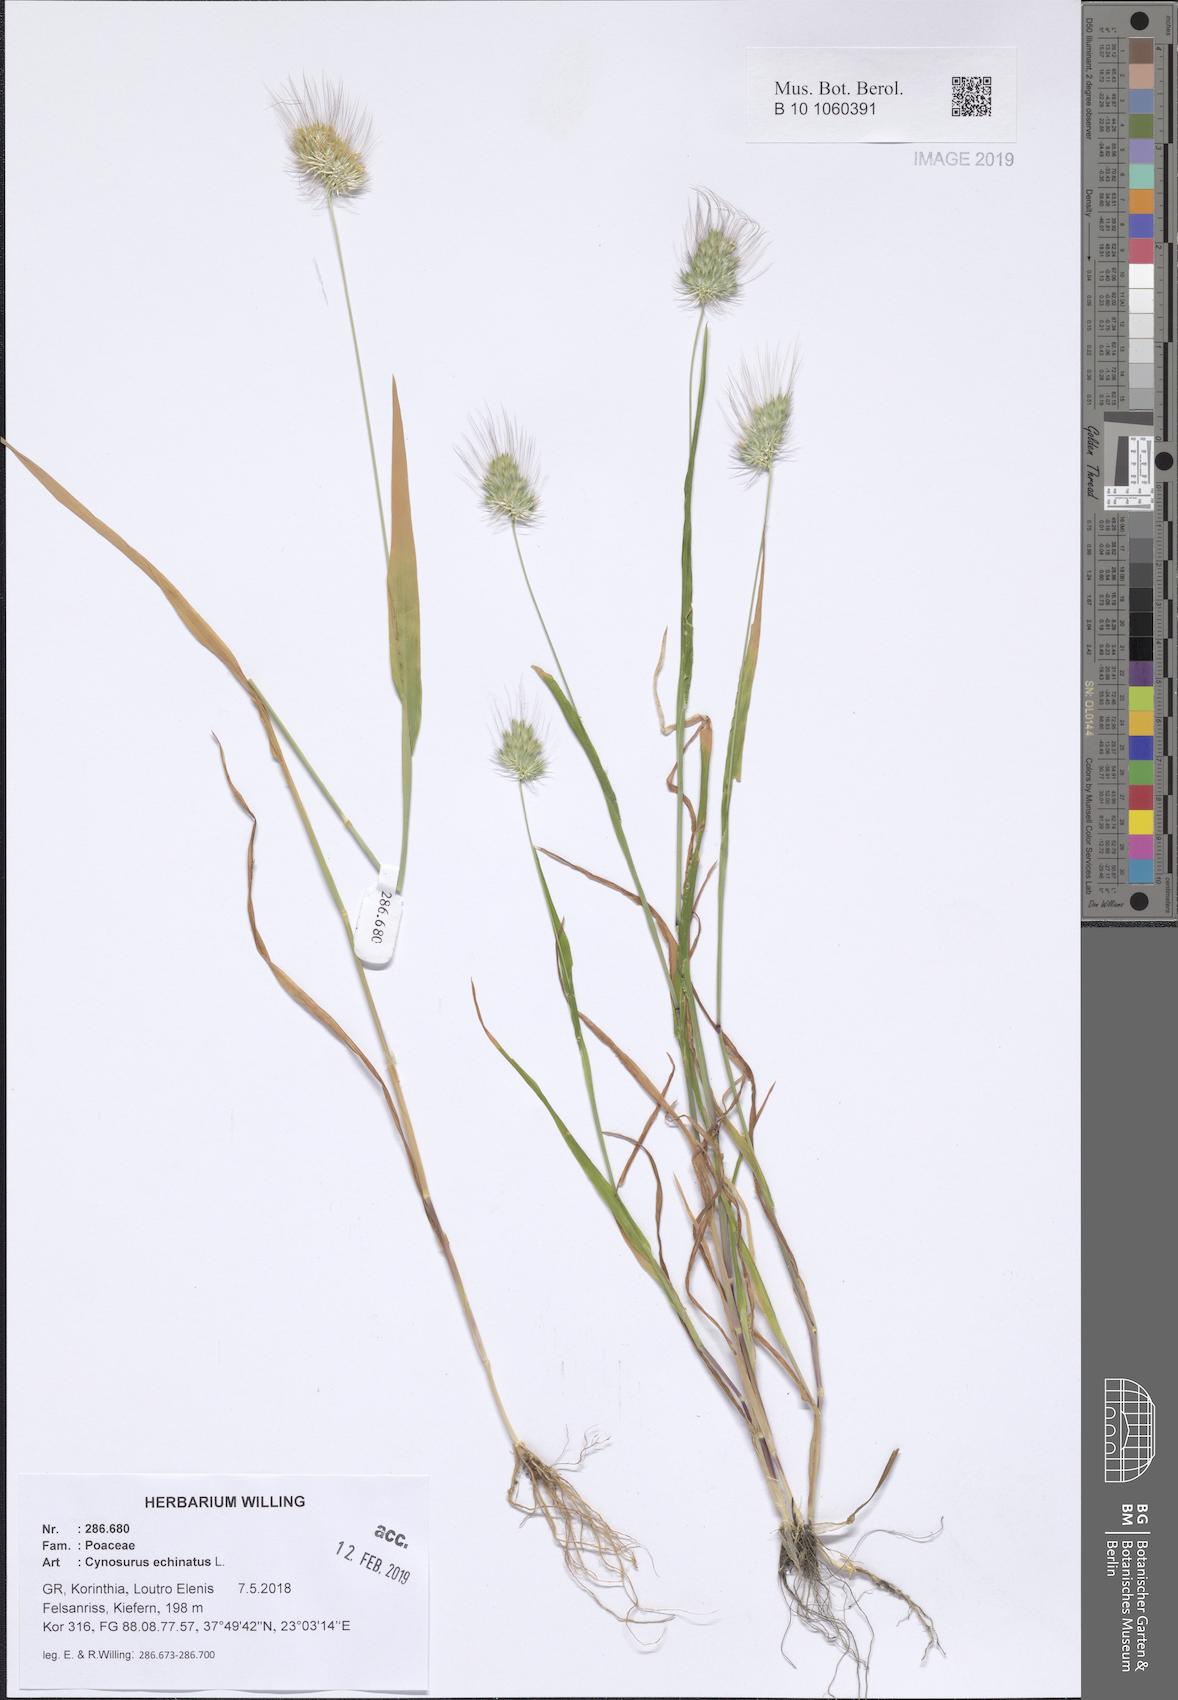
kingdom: Plantae
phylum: Tracheophyta
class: Liliopsida
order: Poales
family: Poaceae
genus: Cynosurus
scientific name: Cynosurus echinatus
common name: Rough dog's-tail
